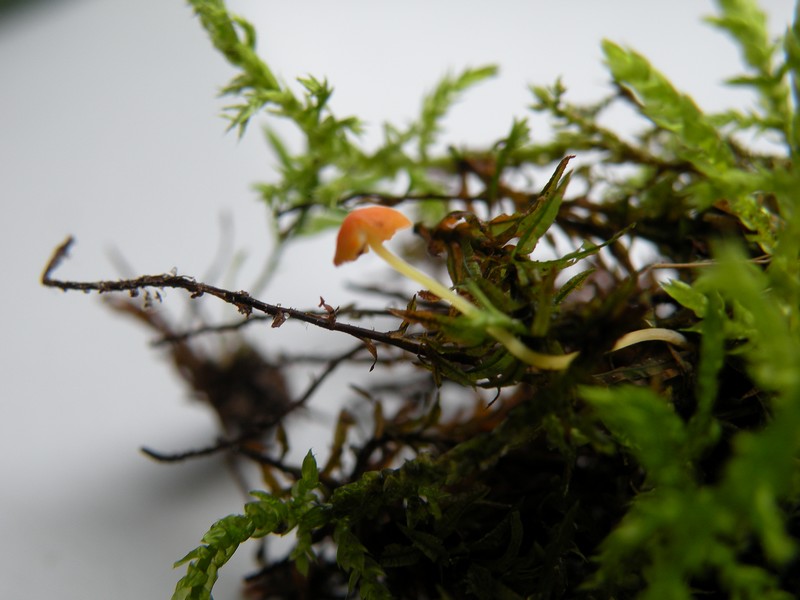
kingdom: Fungi
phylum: Basidiomycota
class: Agaricomycetes
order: Agaricales
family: Mycenaceae
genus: Mycena
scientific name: Mycena acicula
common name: orange huesvamp
